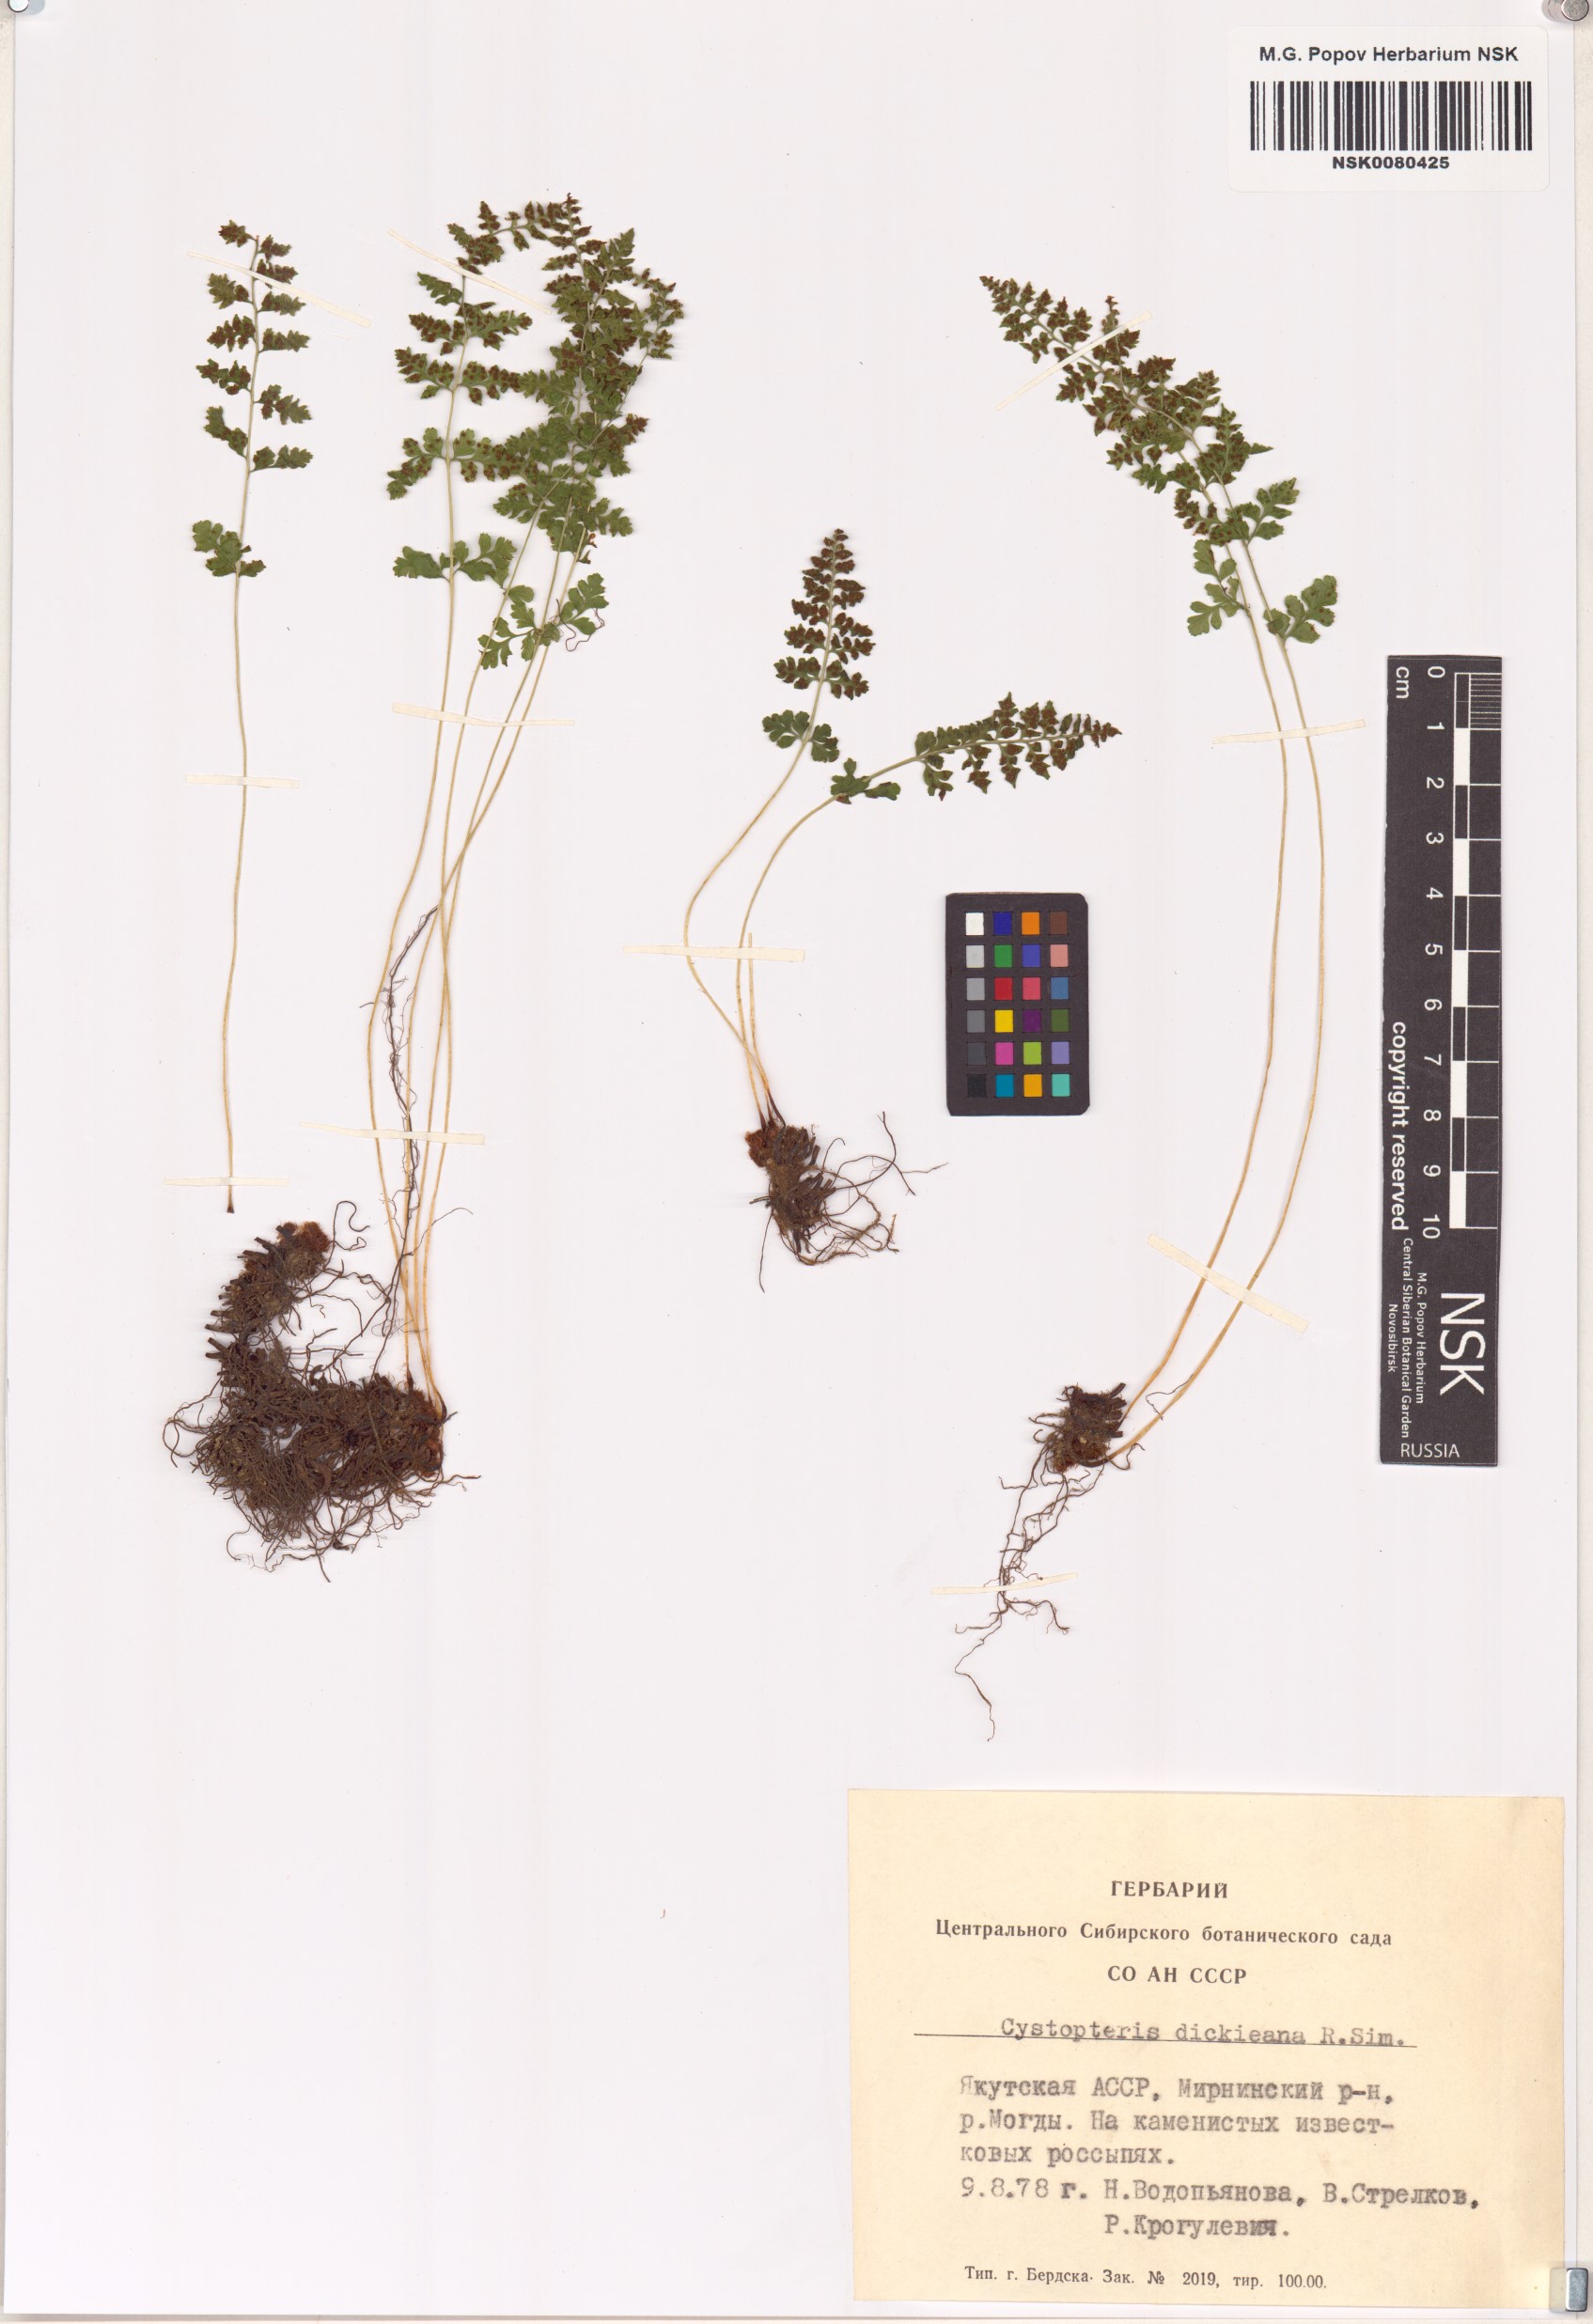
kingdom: Plantae
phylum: Tracheophyta
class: Polypodiopsida
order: Polypodiales
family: Cystopteridaceae
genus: Cystopteris
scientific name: Cystopteris dickieana
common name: Dickie's bladder-fern
